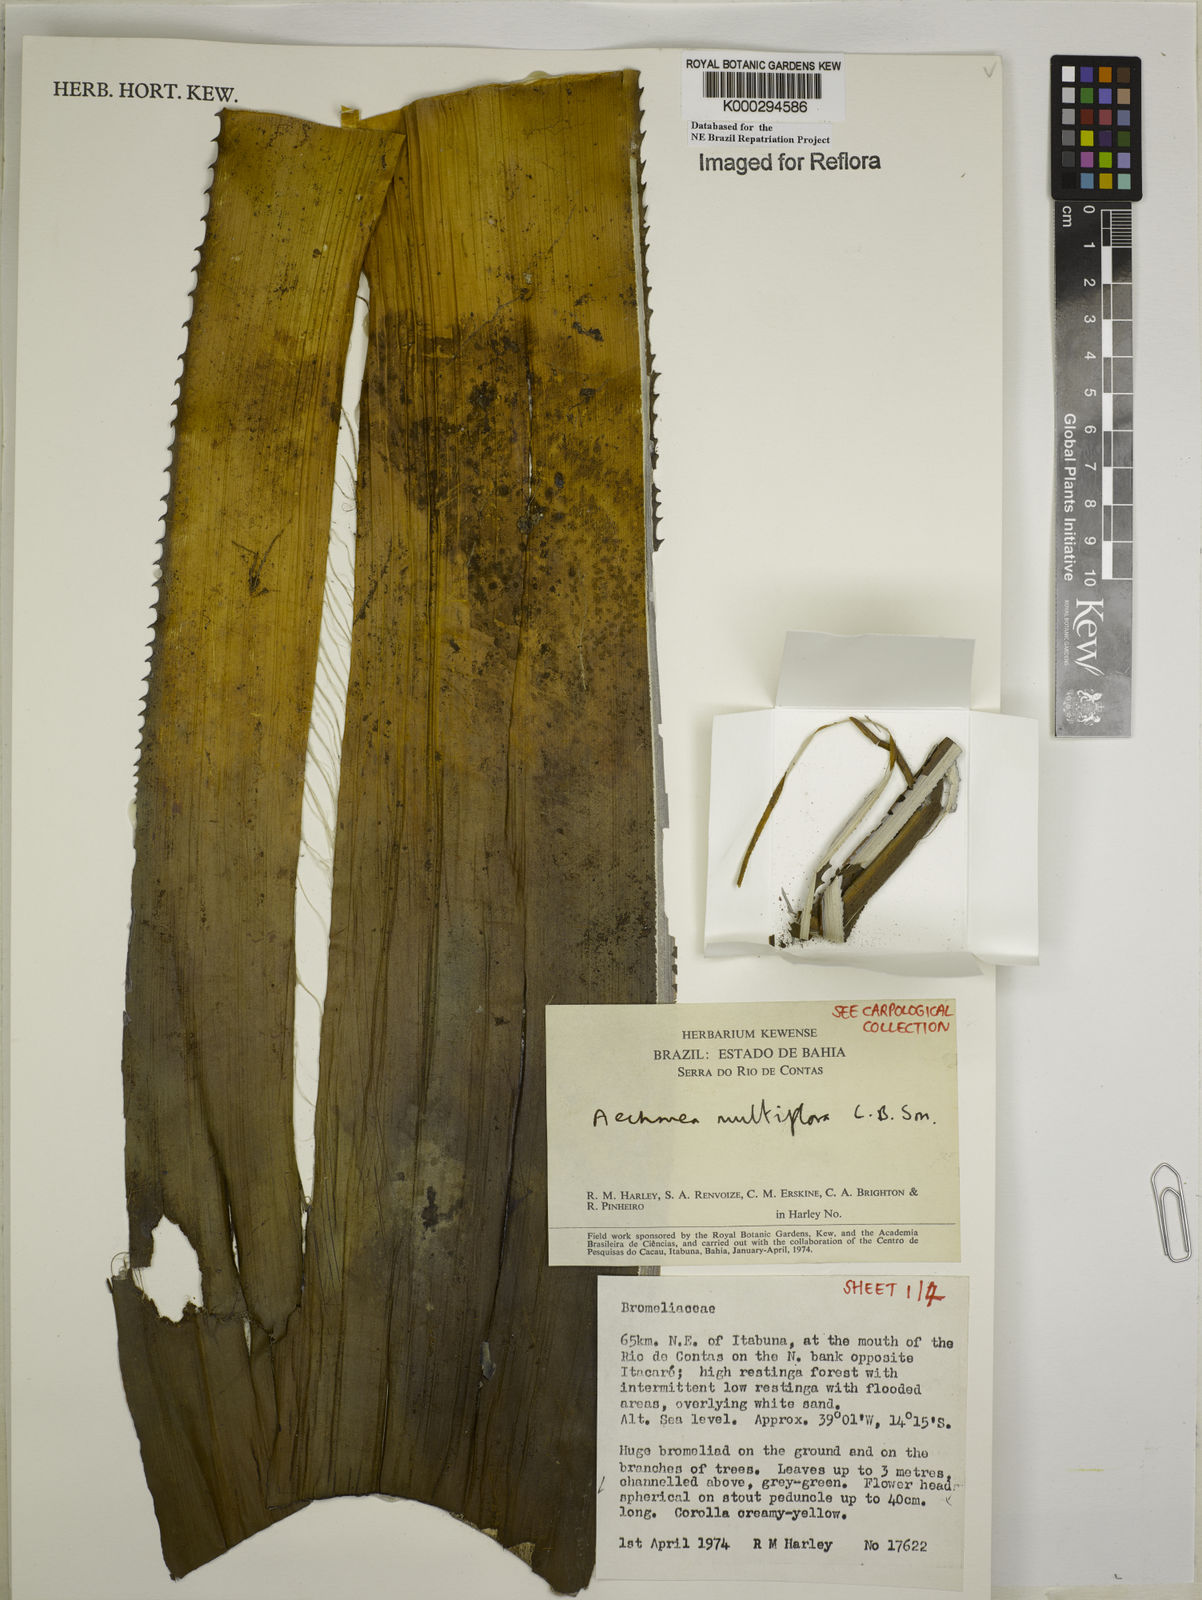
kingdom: Plantae
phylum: Tracheophyta
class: Liliopsida
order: Poales
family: Bromeliaceae
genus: Karawata
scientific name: Karawata multiflora
